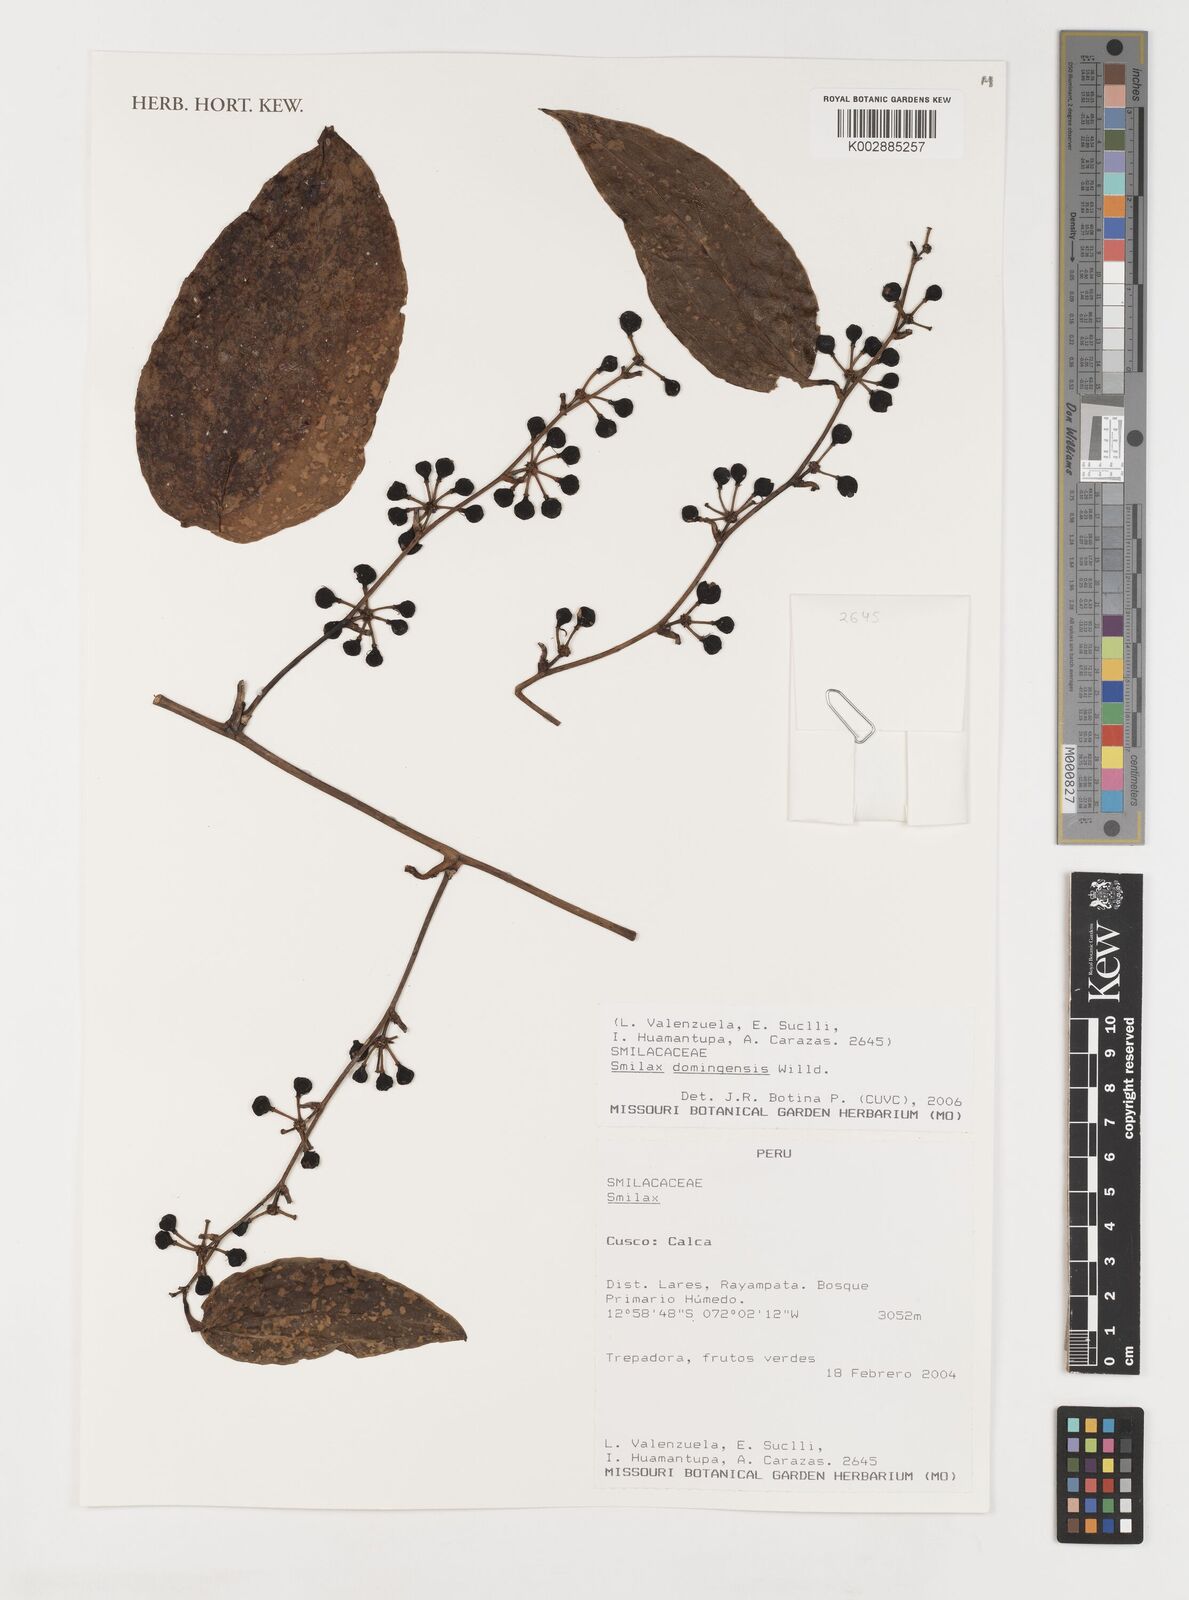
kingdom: Plantae
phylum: Tracheophyta
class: Liliopsida
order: Liliales
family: Smilacaceae
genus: Smilax
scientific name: Smilax domingensis
